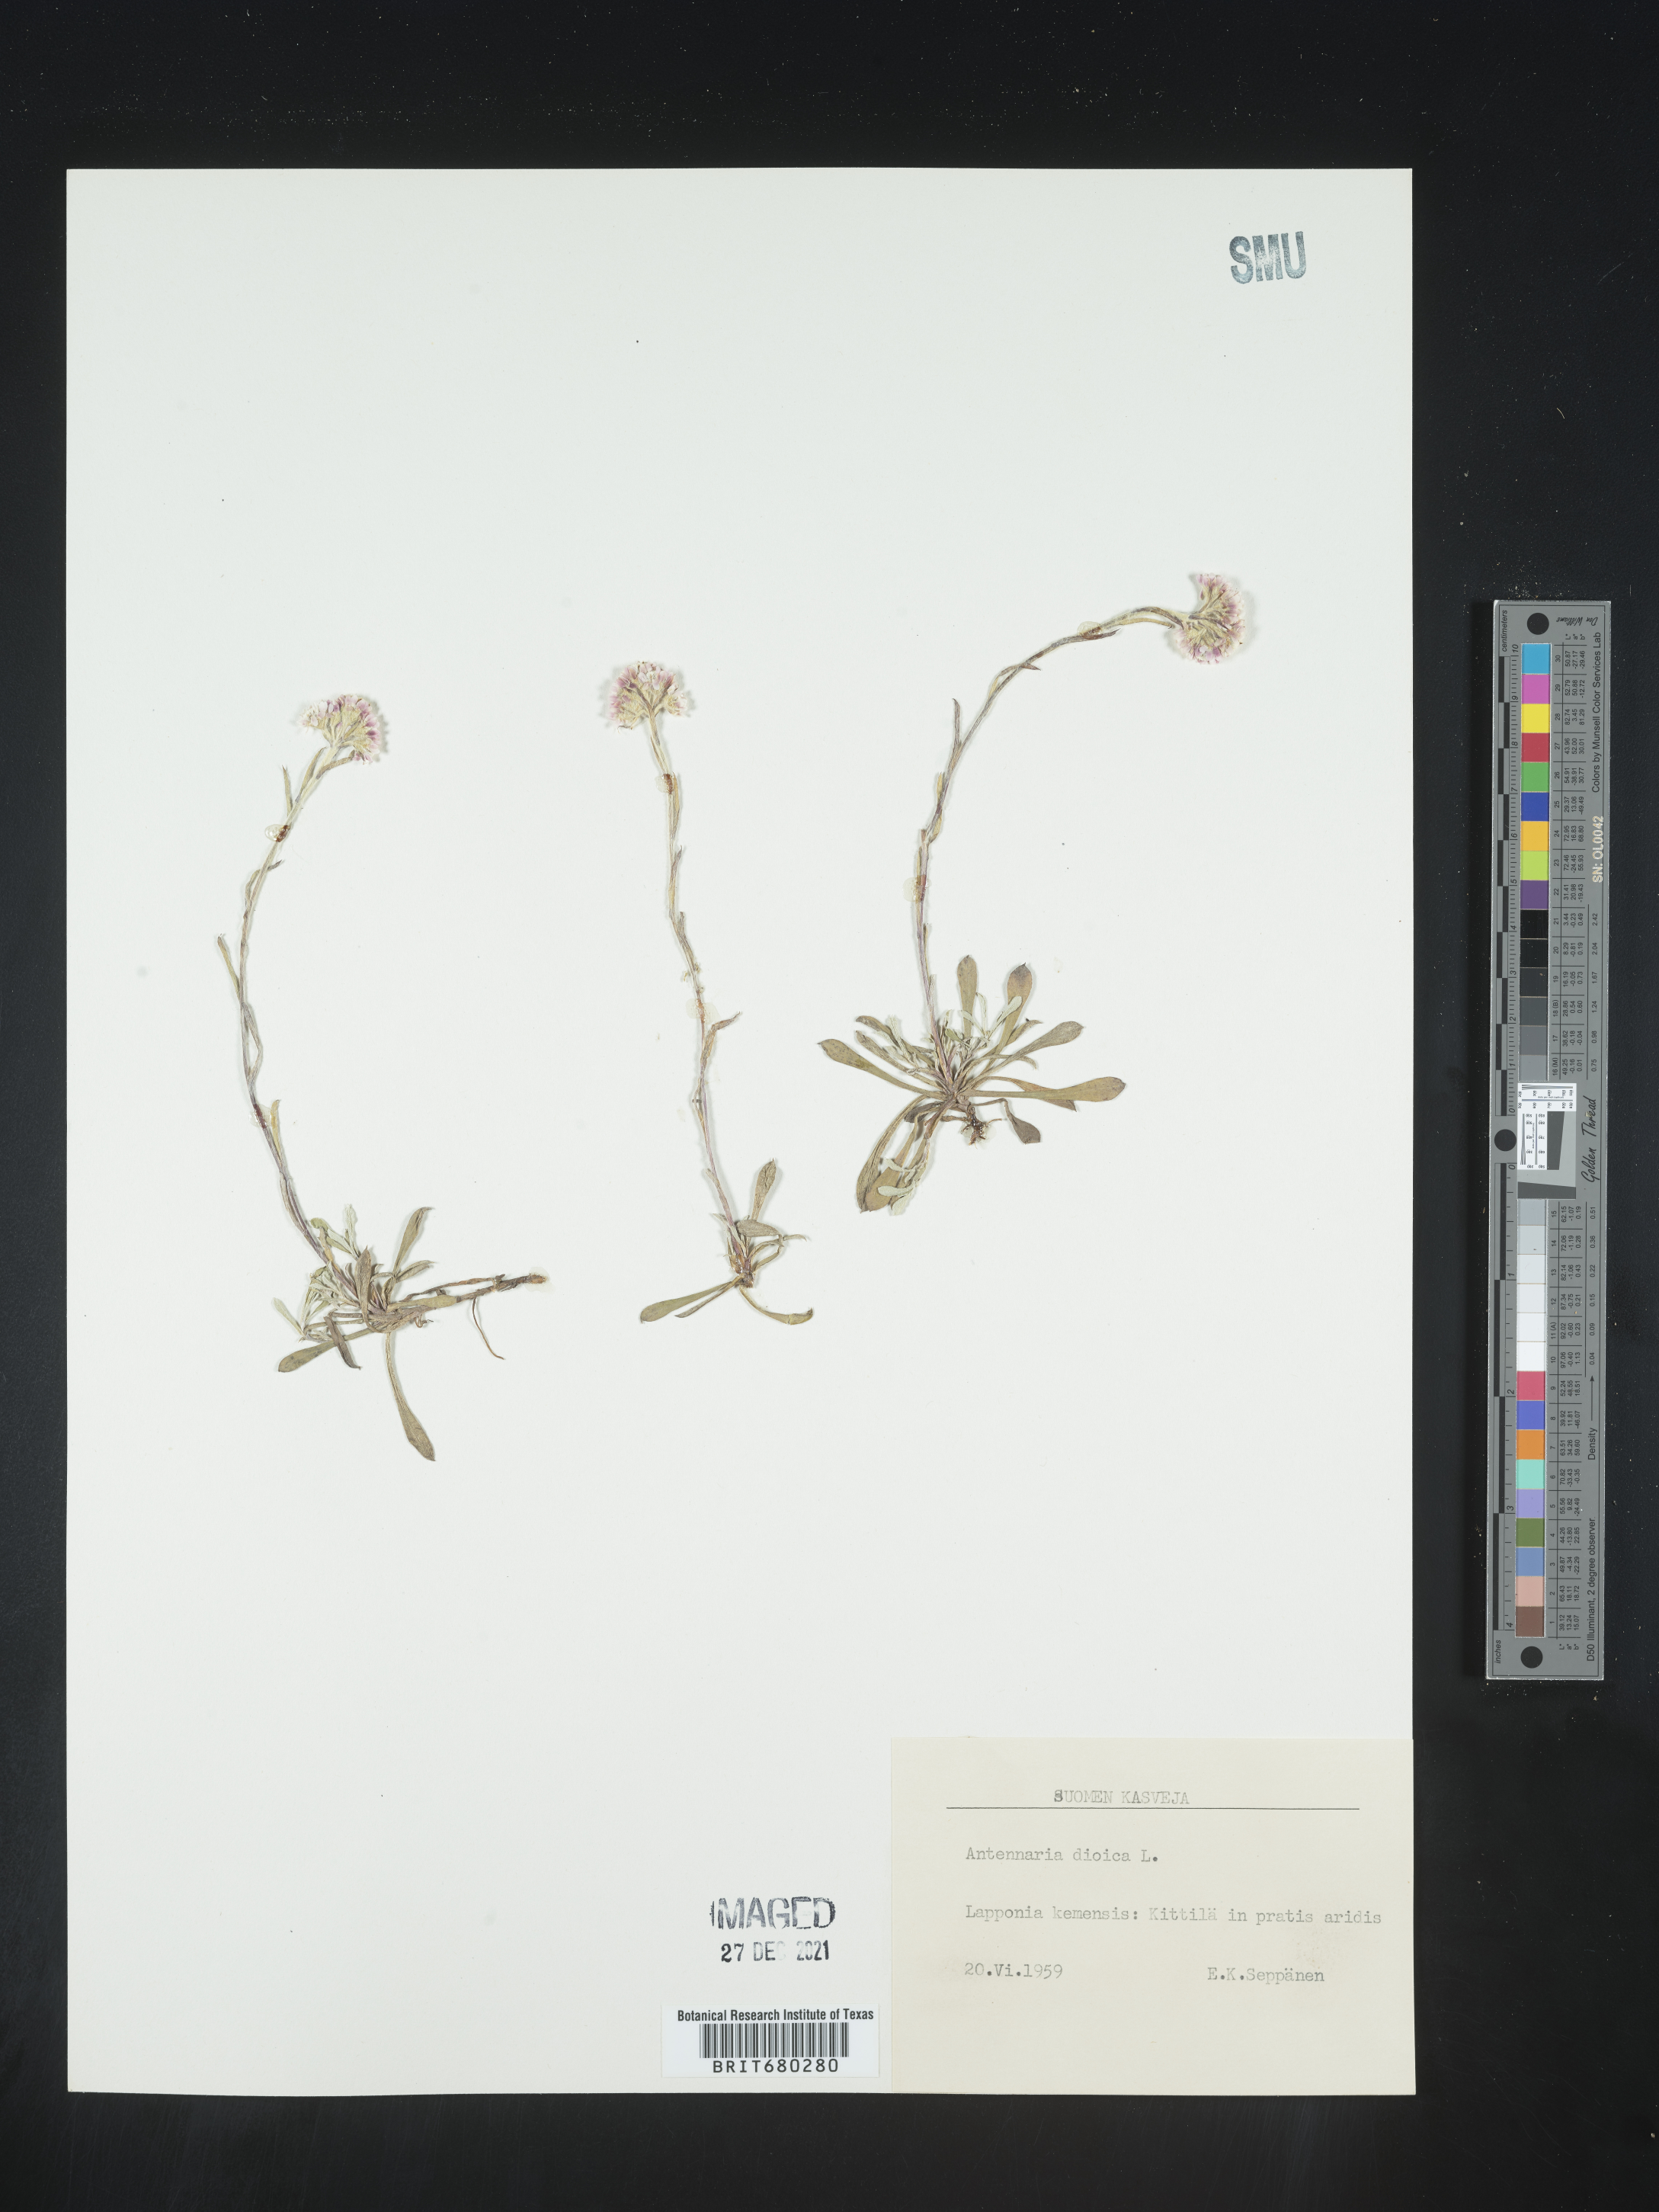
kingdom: Plantae
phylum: Tracheophyta
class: Magnoliopsida
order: Asterales
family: Asteraceae
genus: Antennaria
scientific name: Antennaria dioica
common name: Mountain everlasting
